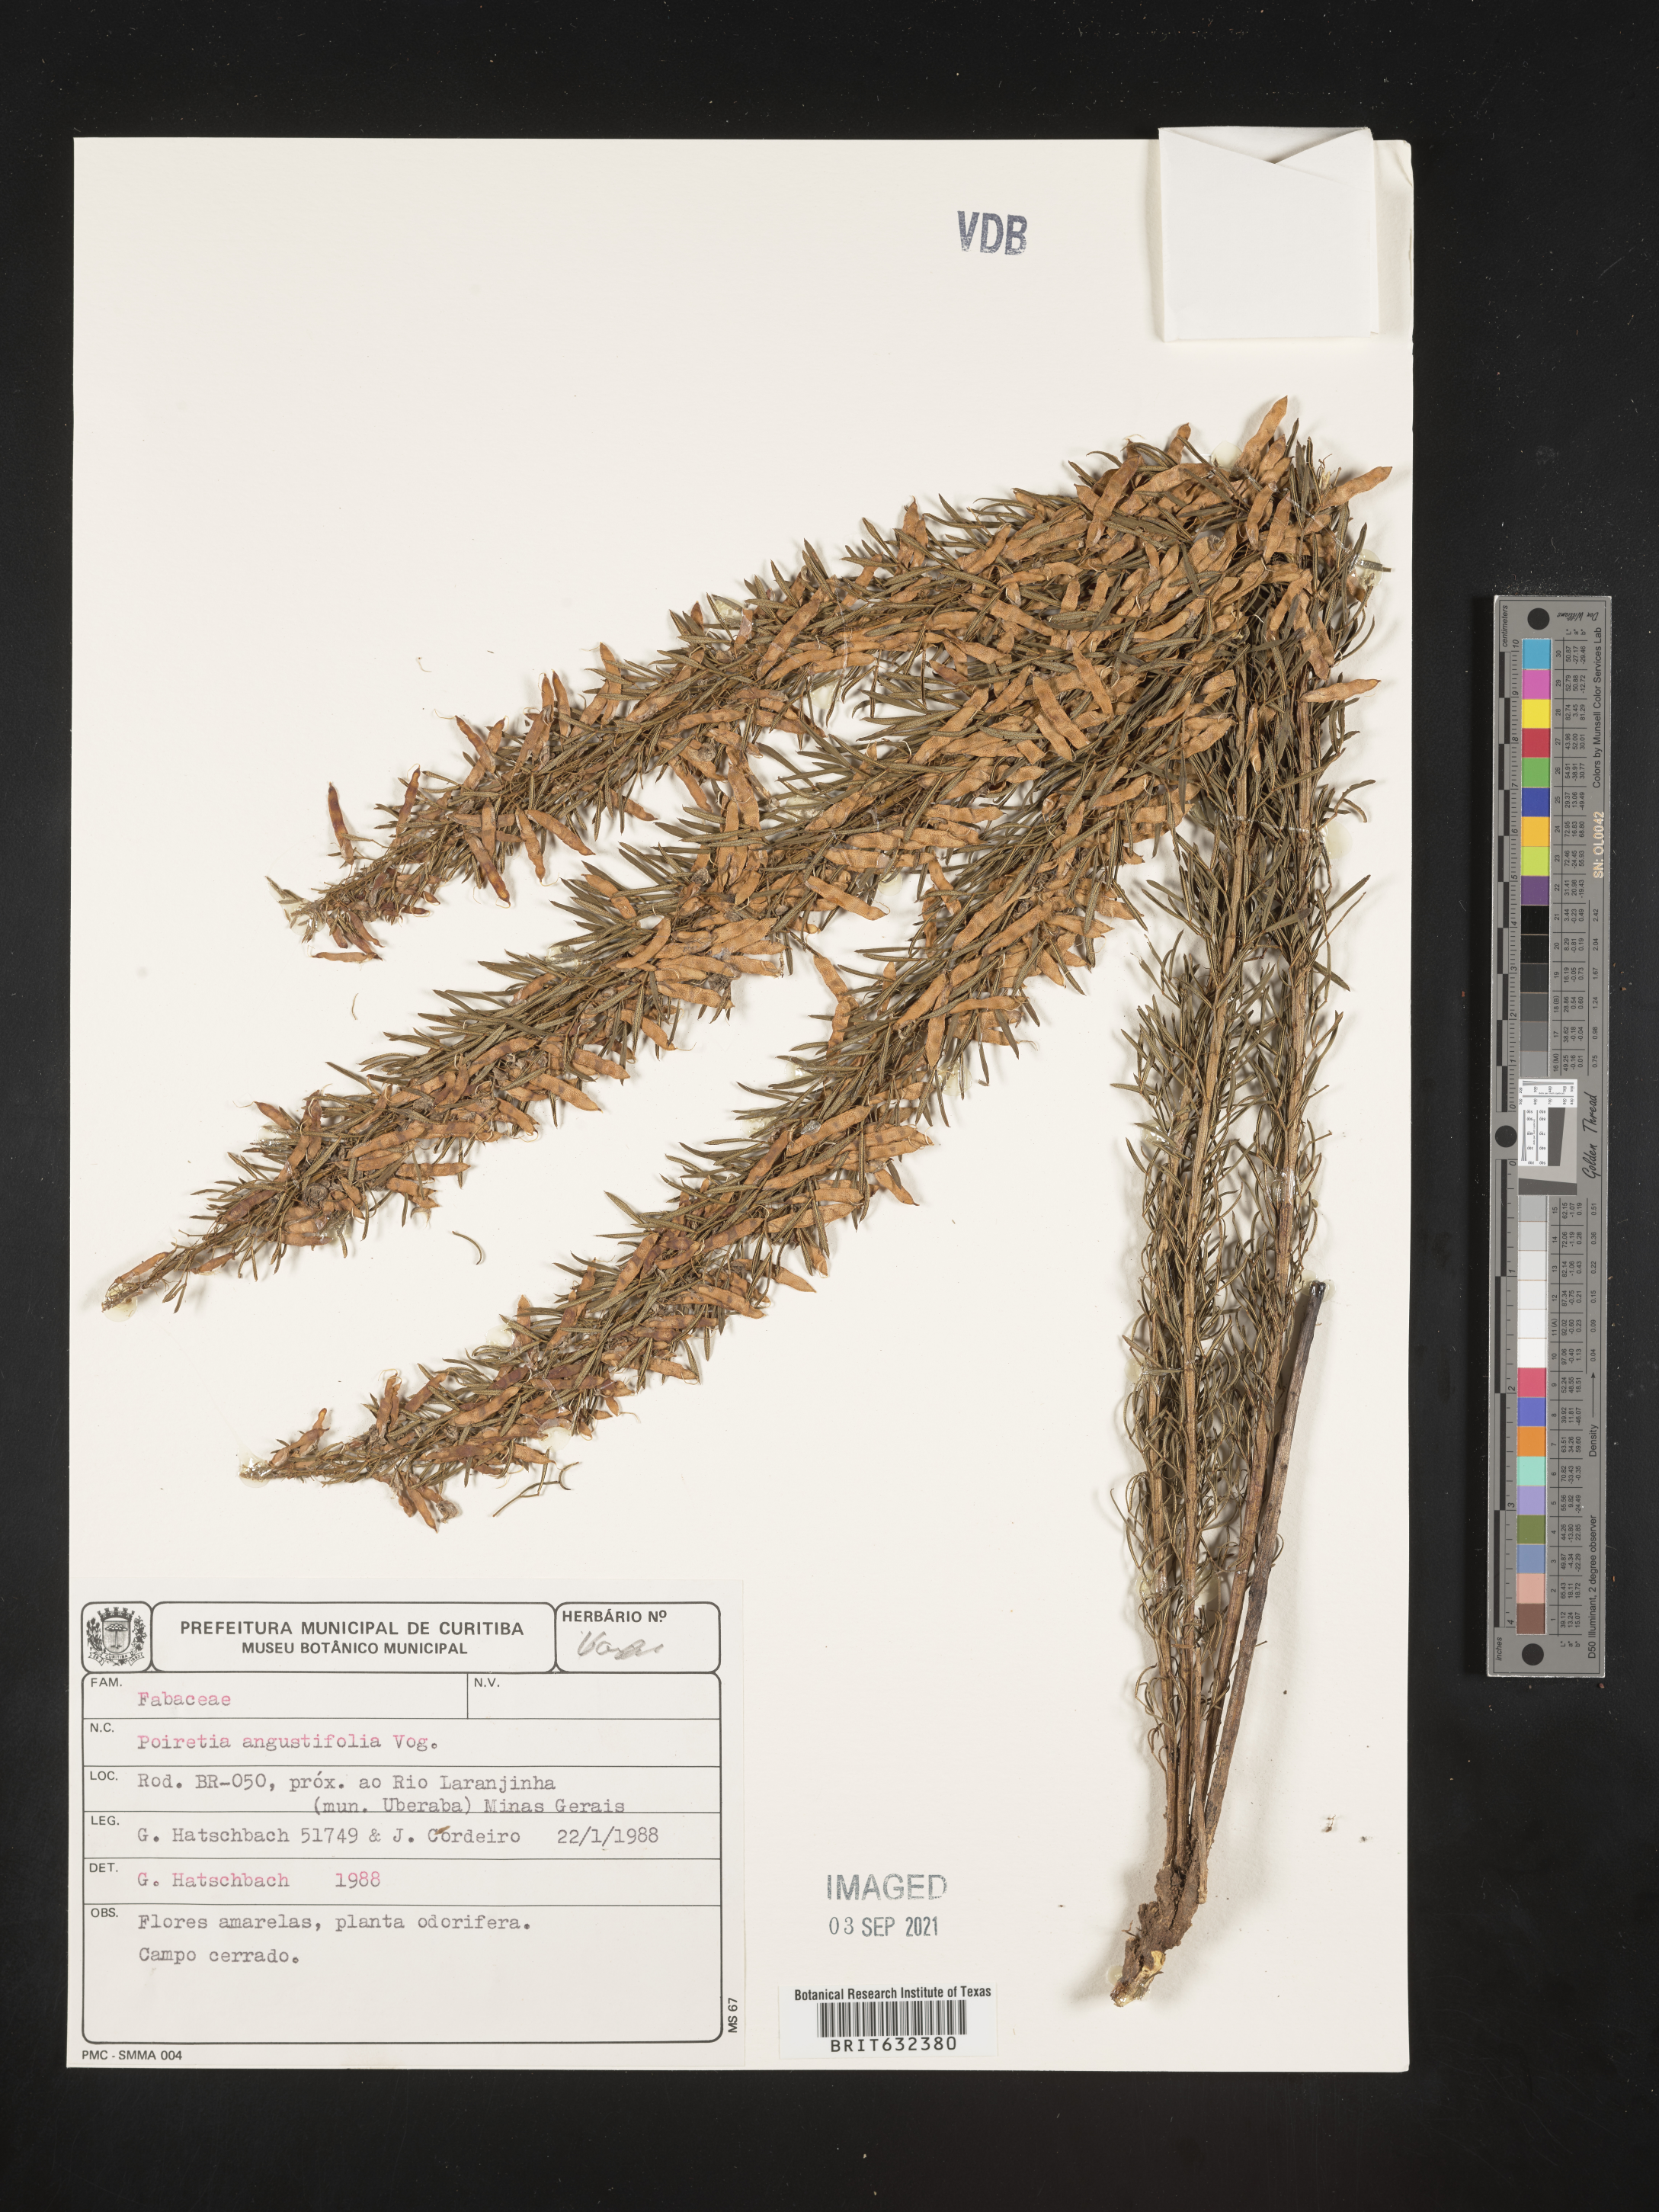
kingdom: Plantae
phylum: Tracheophyta
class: Magnoliopsida
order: Fabales
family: Fabaceae
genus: Poiretia
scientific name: Poiretia
